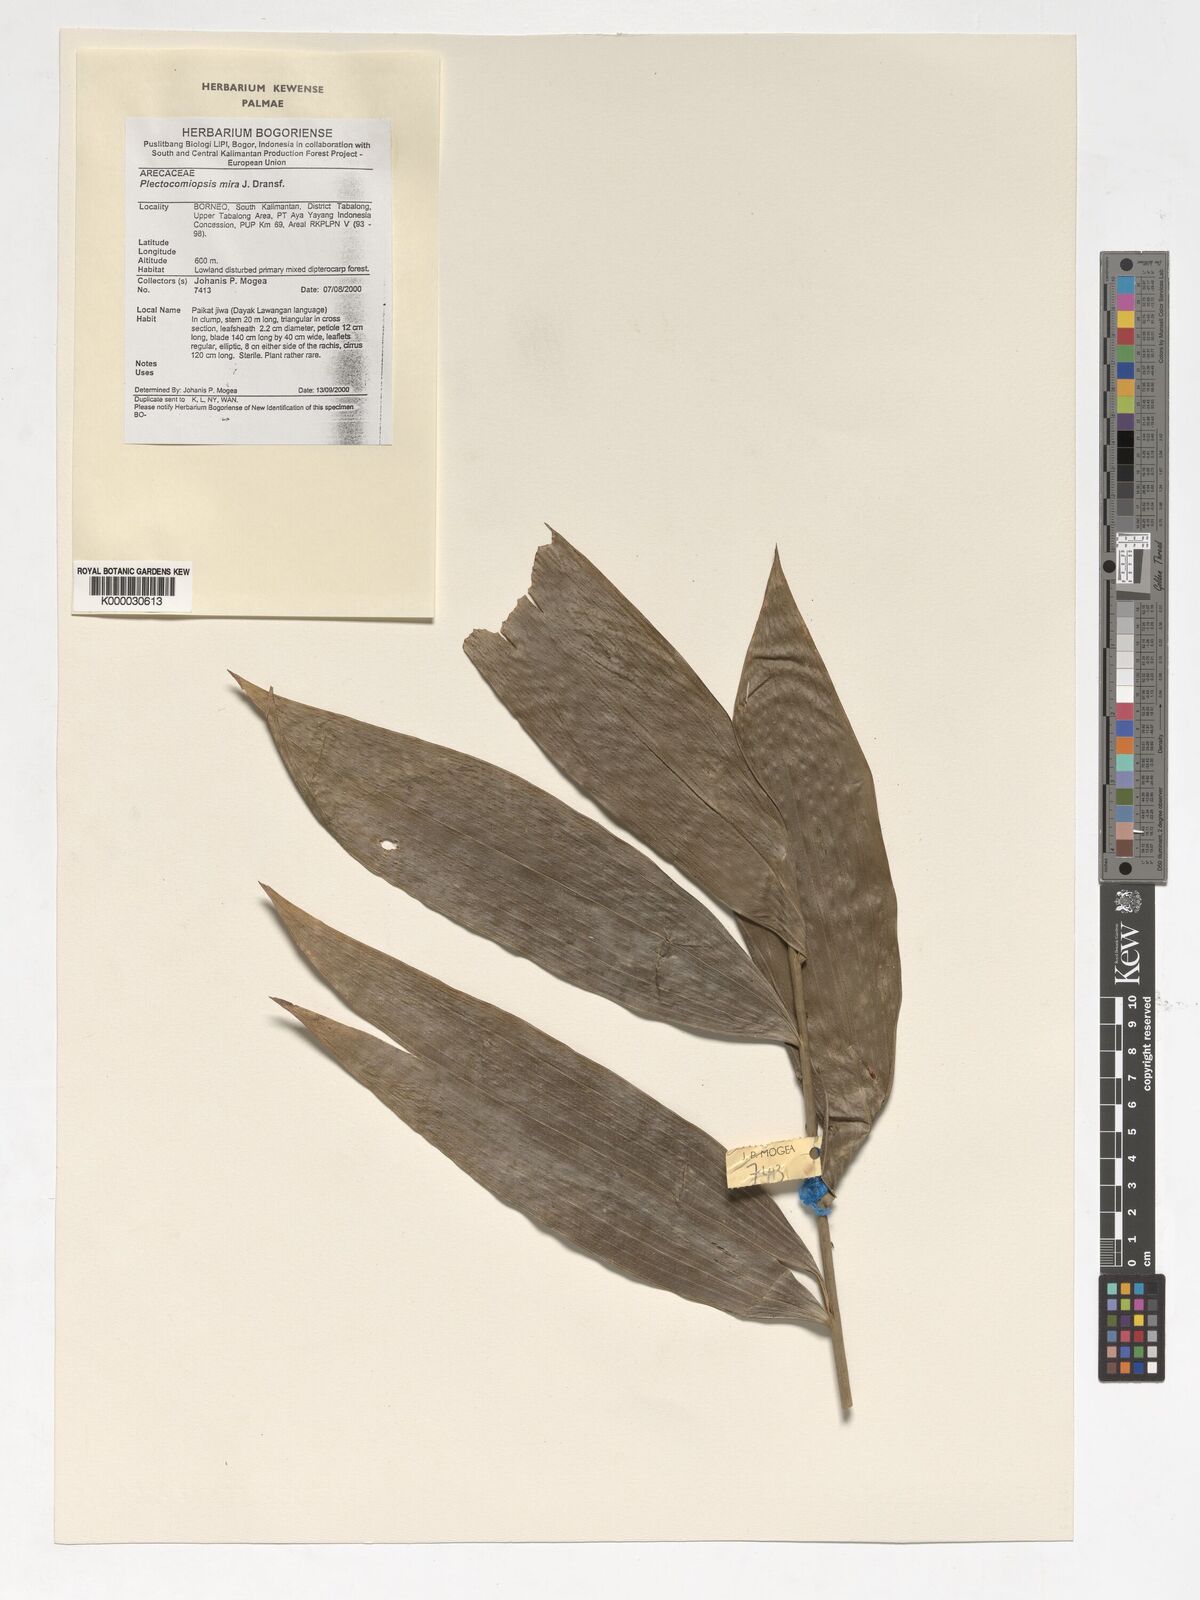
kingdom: Plantae
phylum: Tracheophyta
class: Liliopsida
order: Arecales
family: Arecaceae
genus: Plectocomiopsis
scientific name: Plectocomiopsis mira
